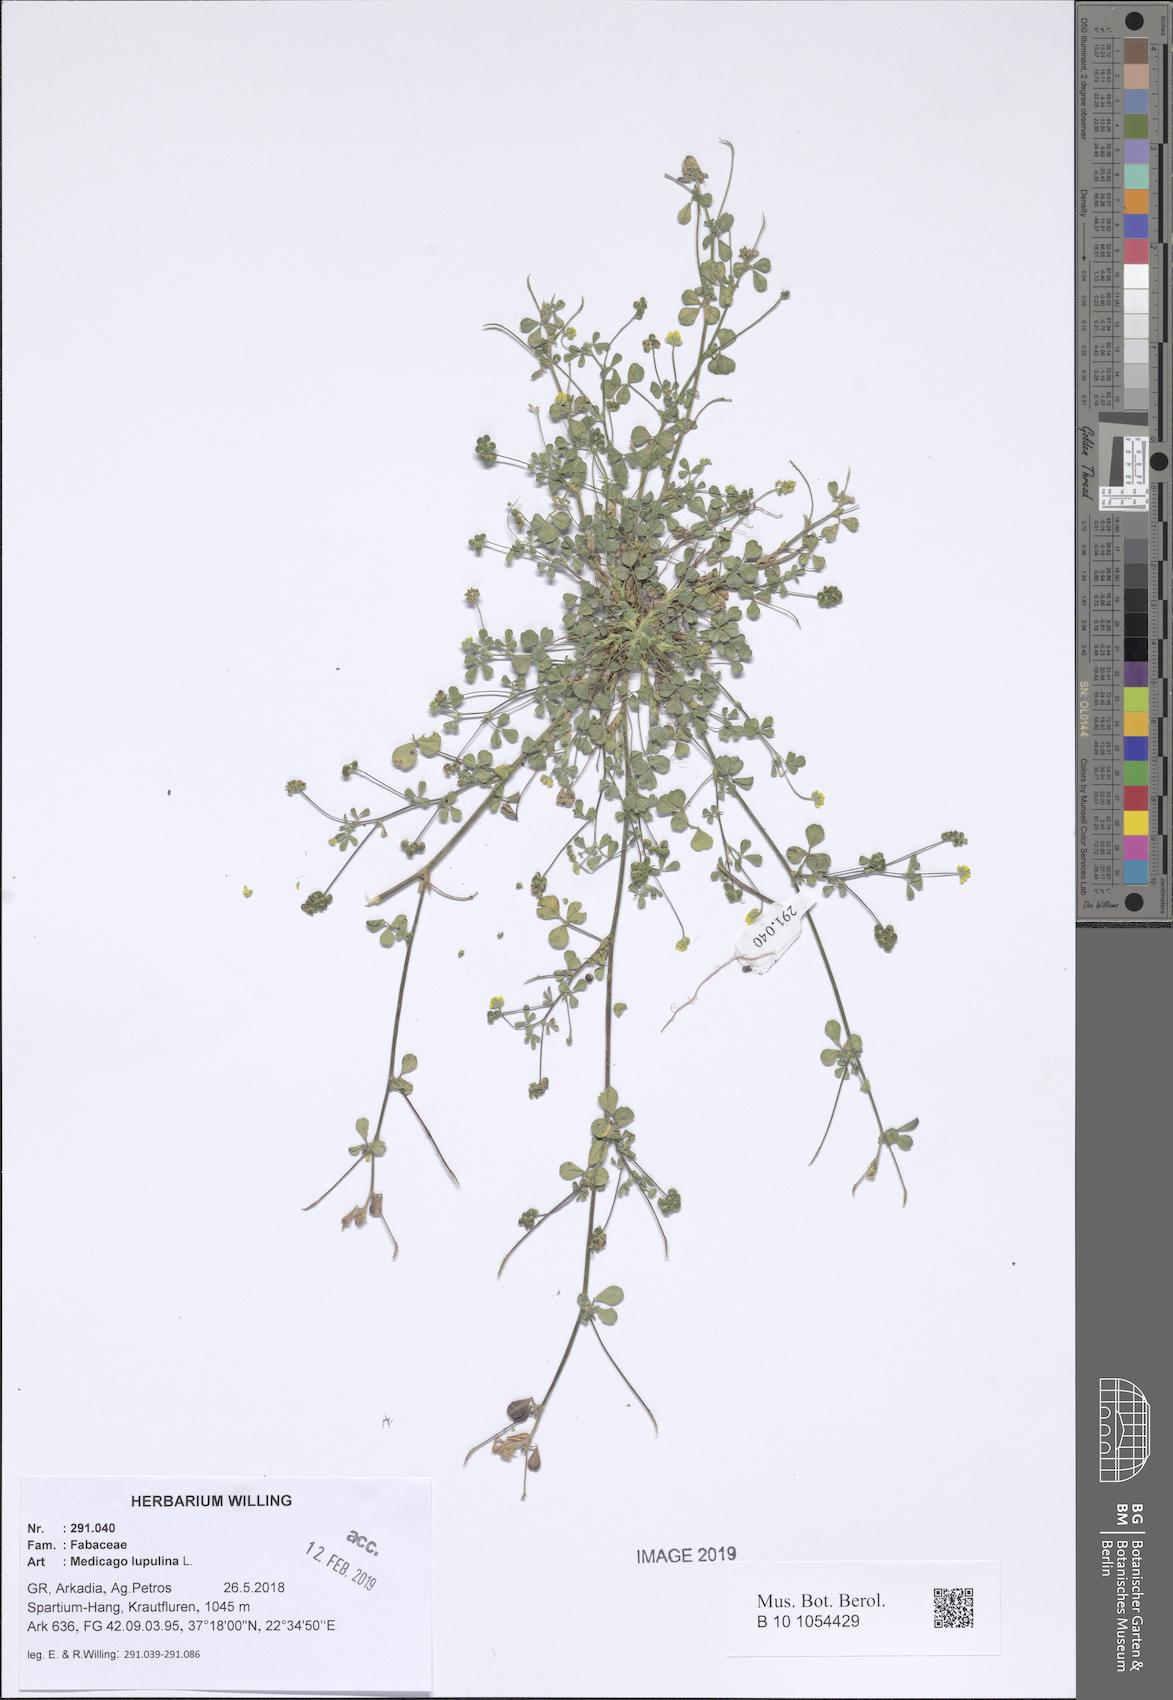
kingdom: Plantae
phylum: Tracheophyta
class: Magnoliopsida
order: Fabales
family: Fabaceae
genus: Medicago
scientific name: Medicago lupulina
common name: Black medick
